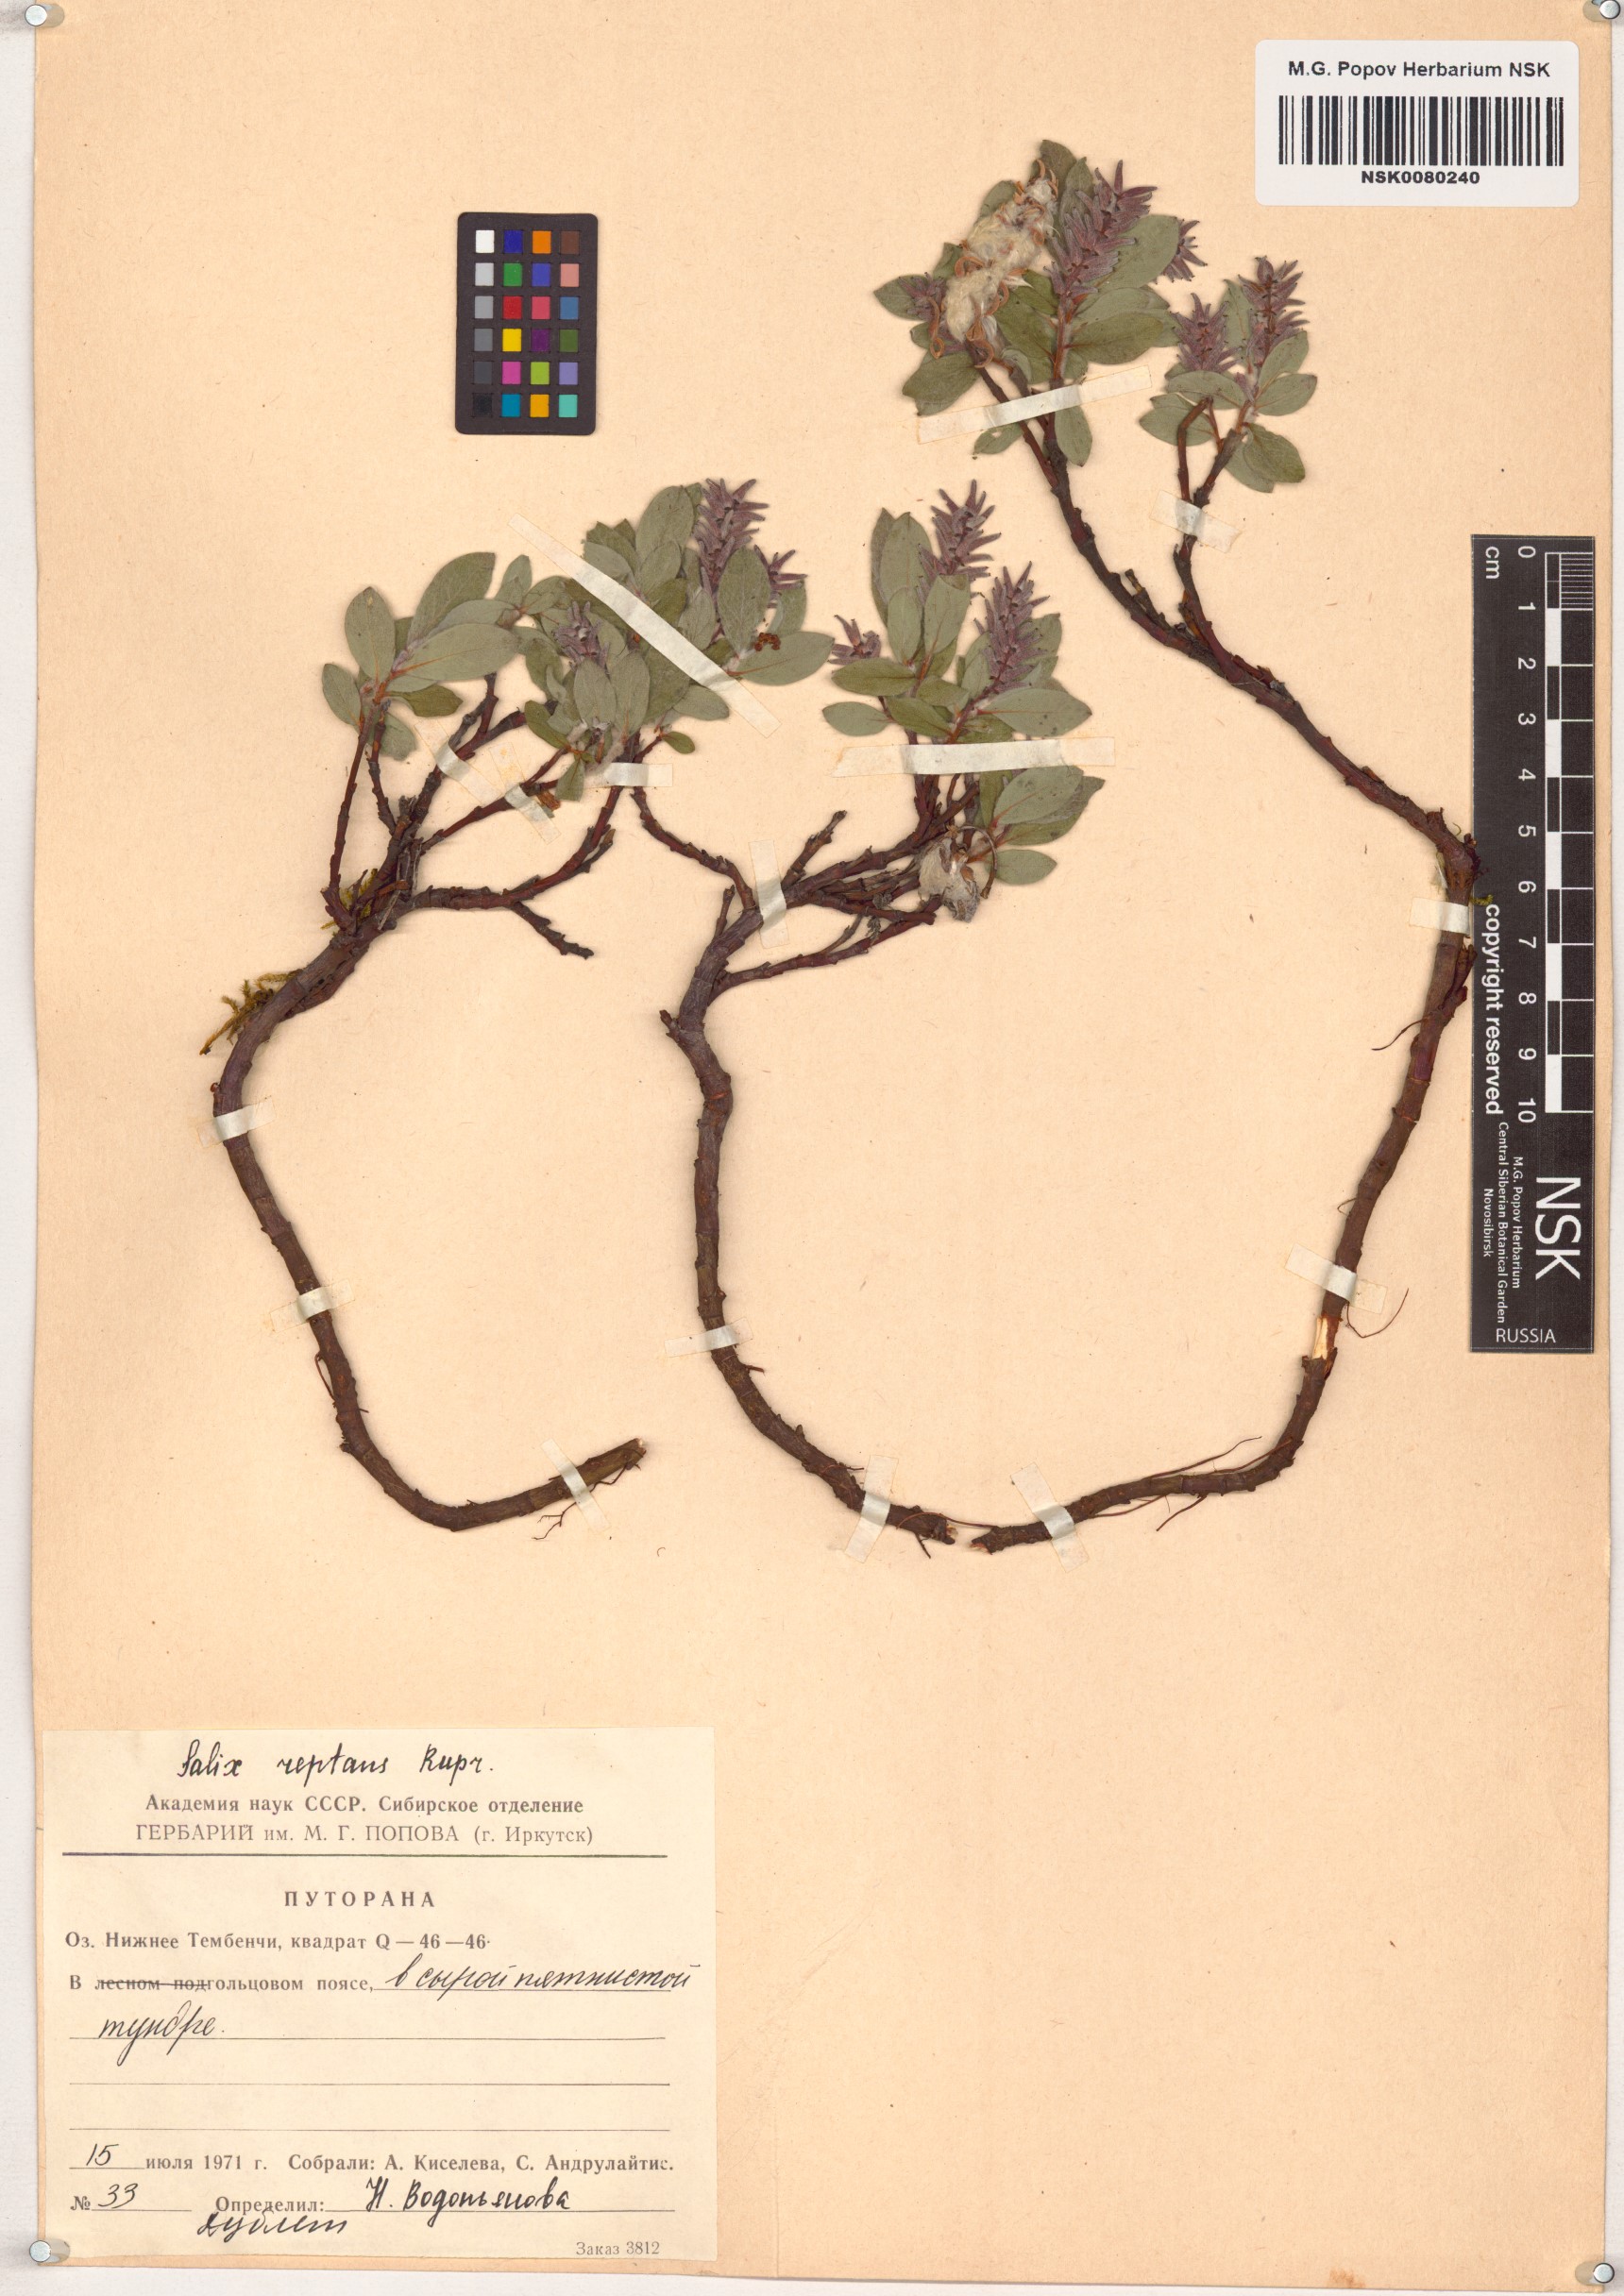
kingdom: Plantae
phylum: Tracheophyta
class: Magnoliopsida
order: Malpighiales
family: Salicaceae
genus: Salix
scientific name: Salix reptans
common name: Arctic creeping willow
